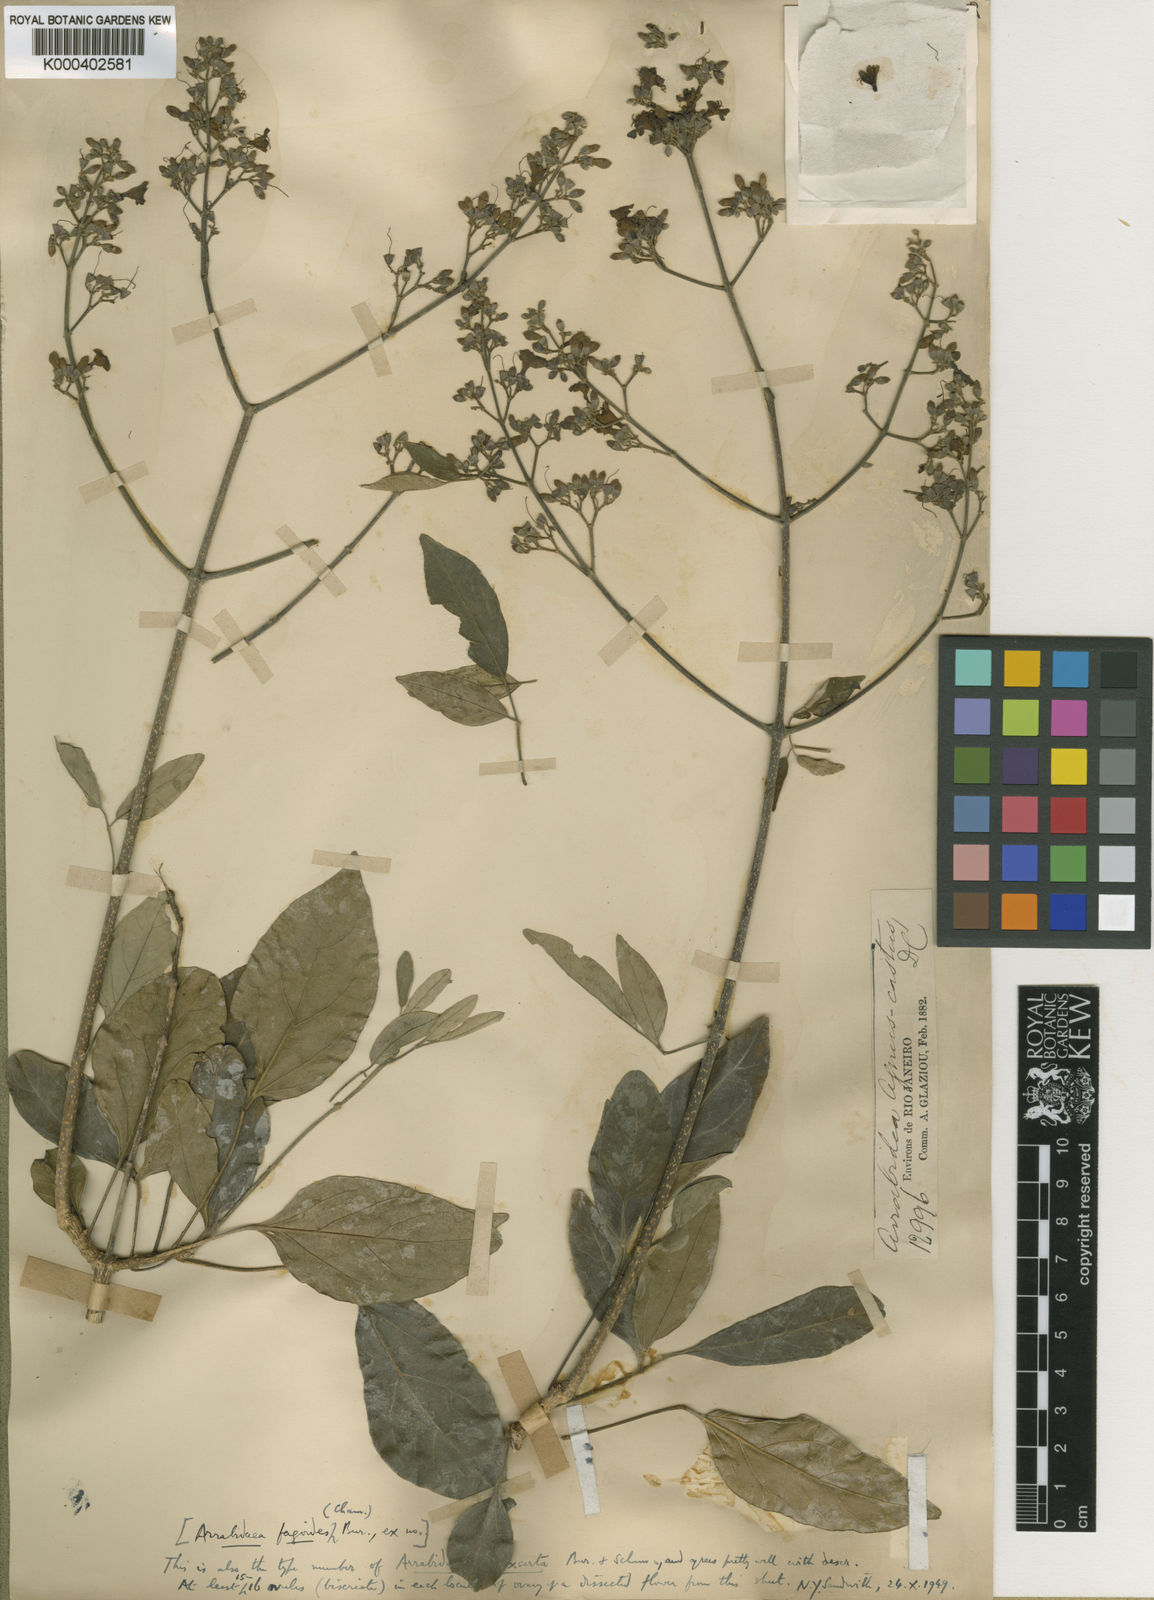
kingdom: Plantae
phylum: Tracheophyta
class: Magnoliopsida
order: Rosales
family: Rhamnaceae
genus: Arrabidaea
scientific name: Arrabidaea
